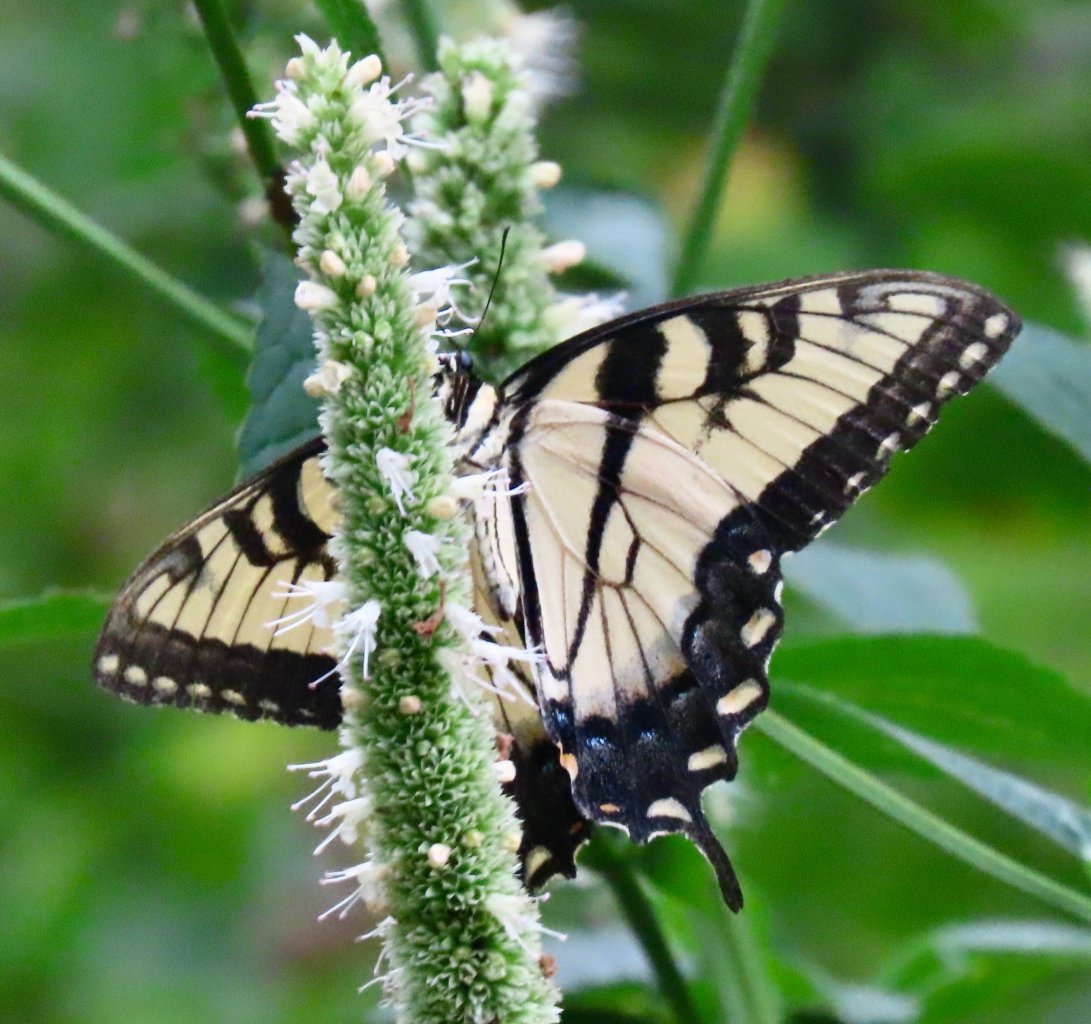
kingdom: Animalia
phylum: Arthropoda
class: Insecta
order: Lepidoptera
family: Papilionidae
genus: Pterourus
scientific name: Pterourus glaucus
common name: Eastern Tiger Swallowtail
